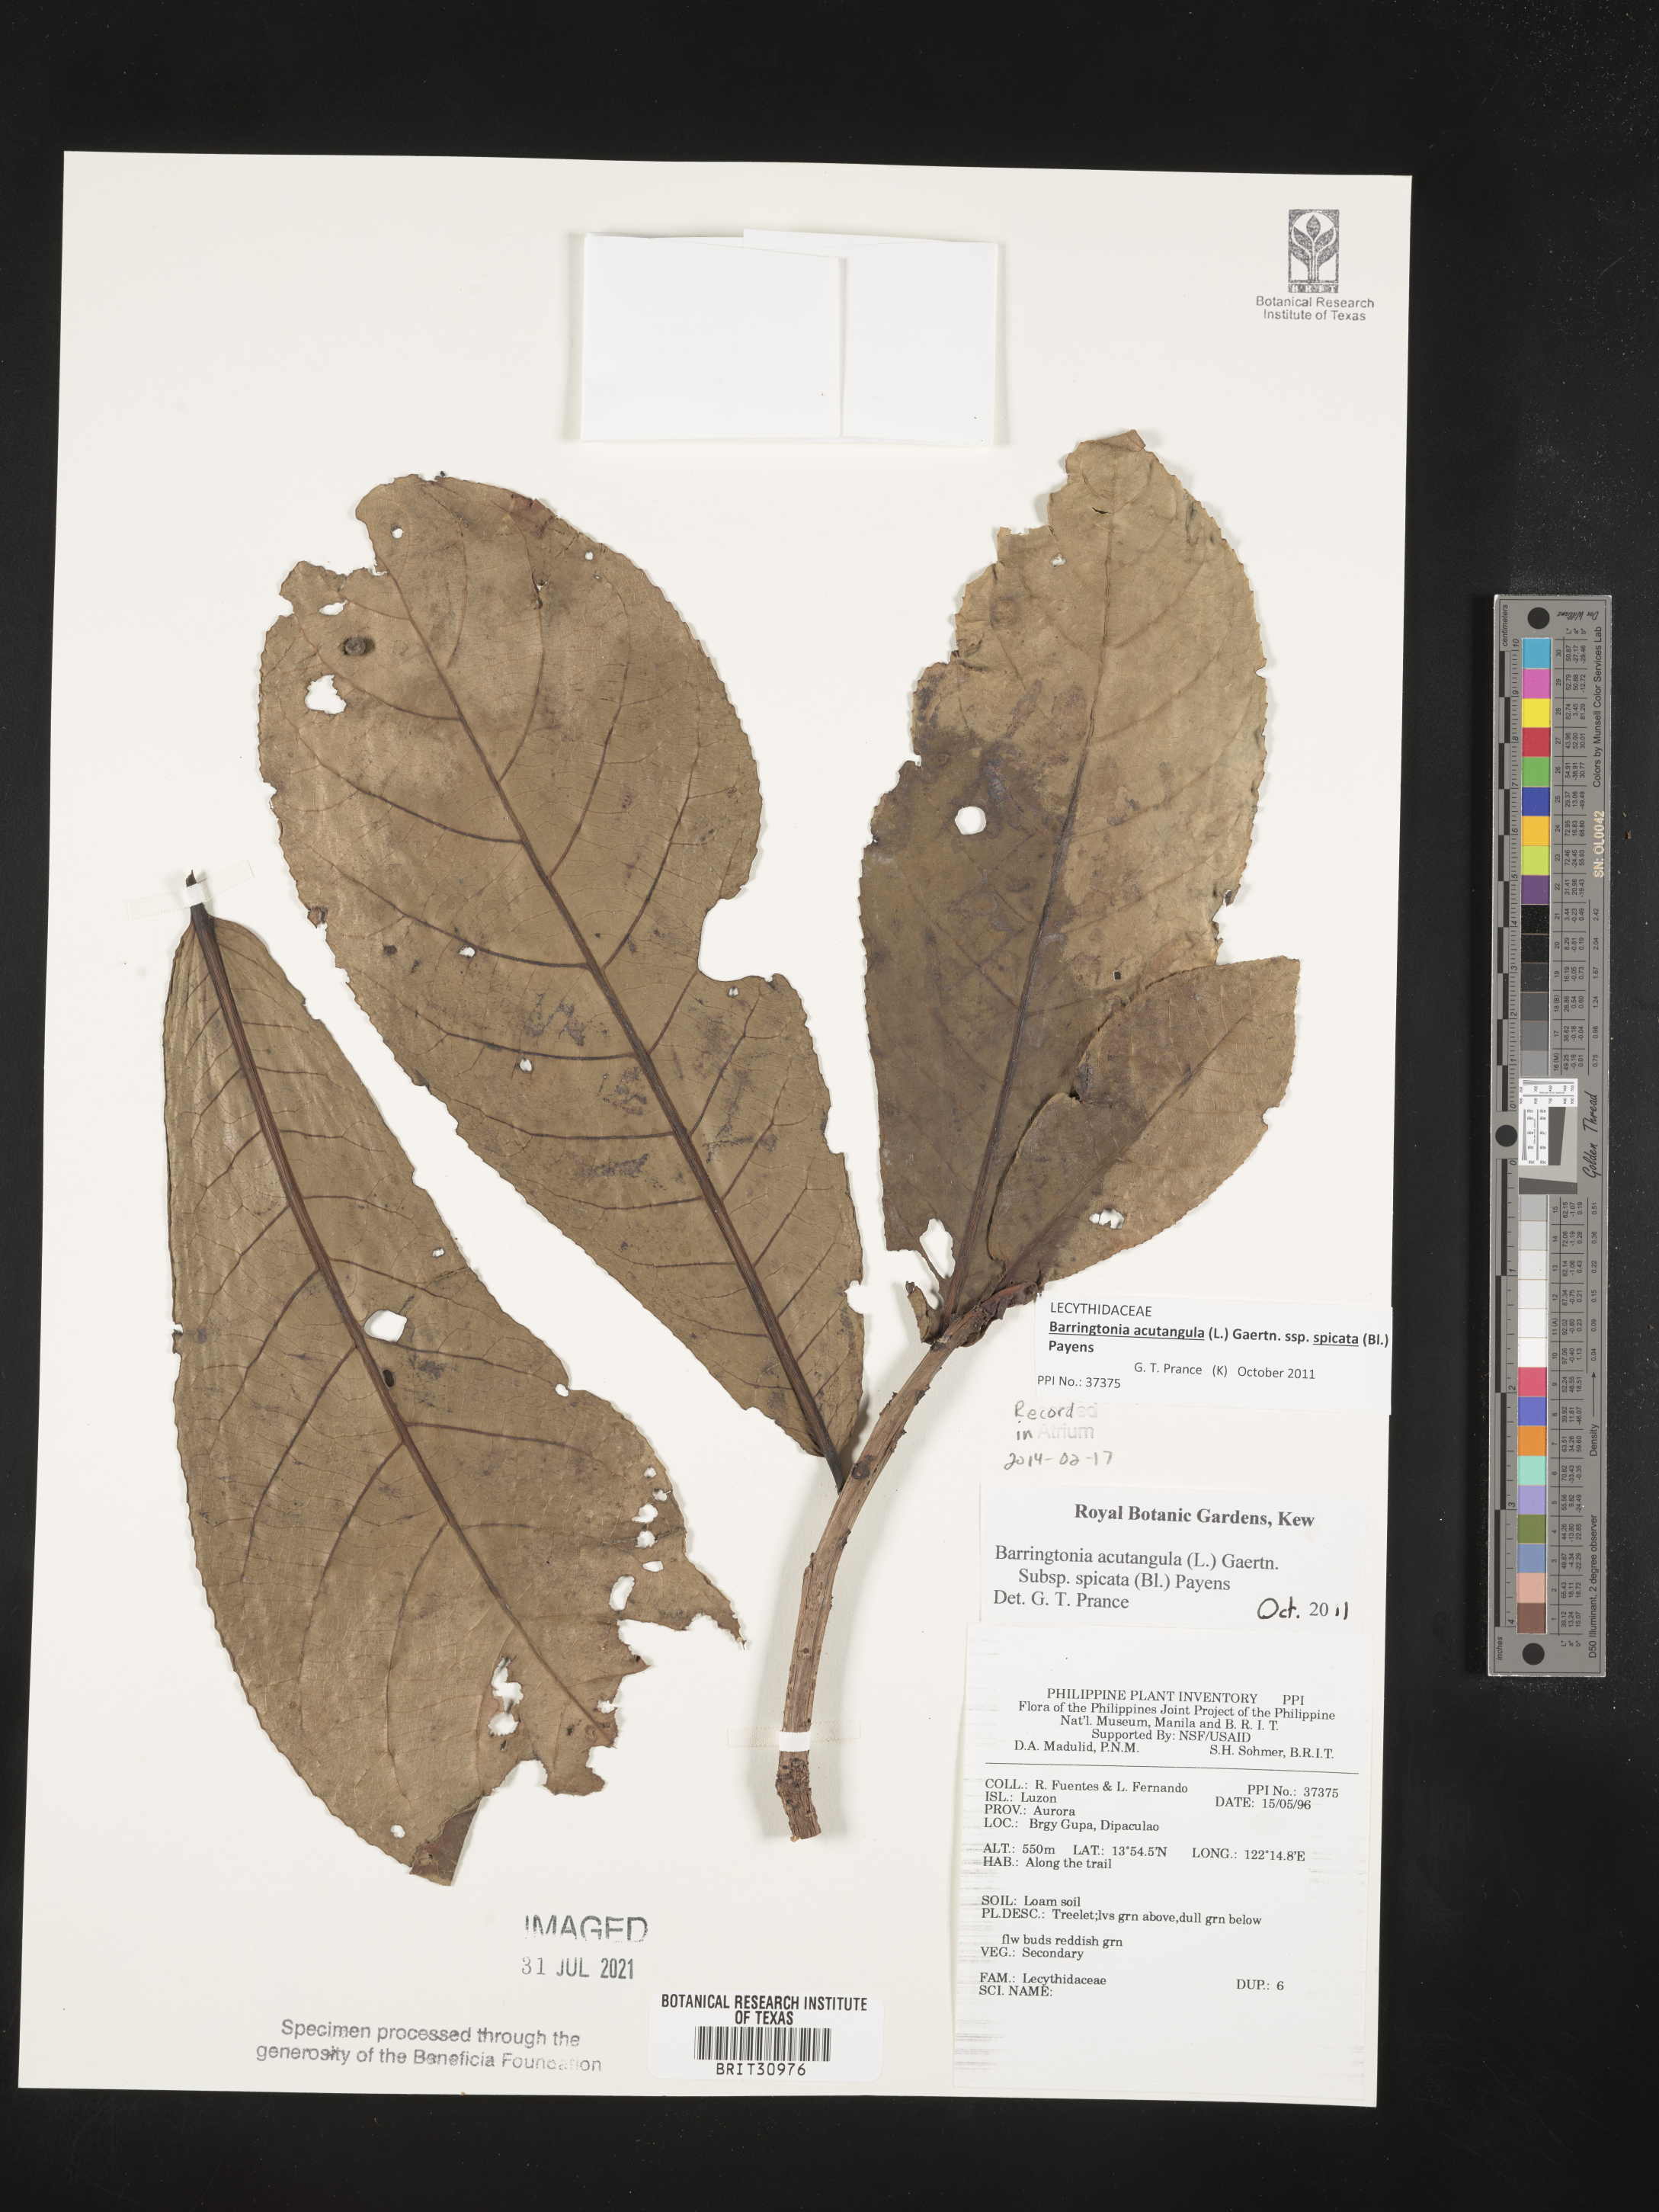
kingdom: Plantae
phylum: Tracheophyta
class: Magnoliopsida
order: Ericales
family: Lecythidaceae
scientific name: Lecythidaceae
